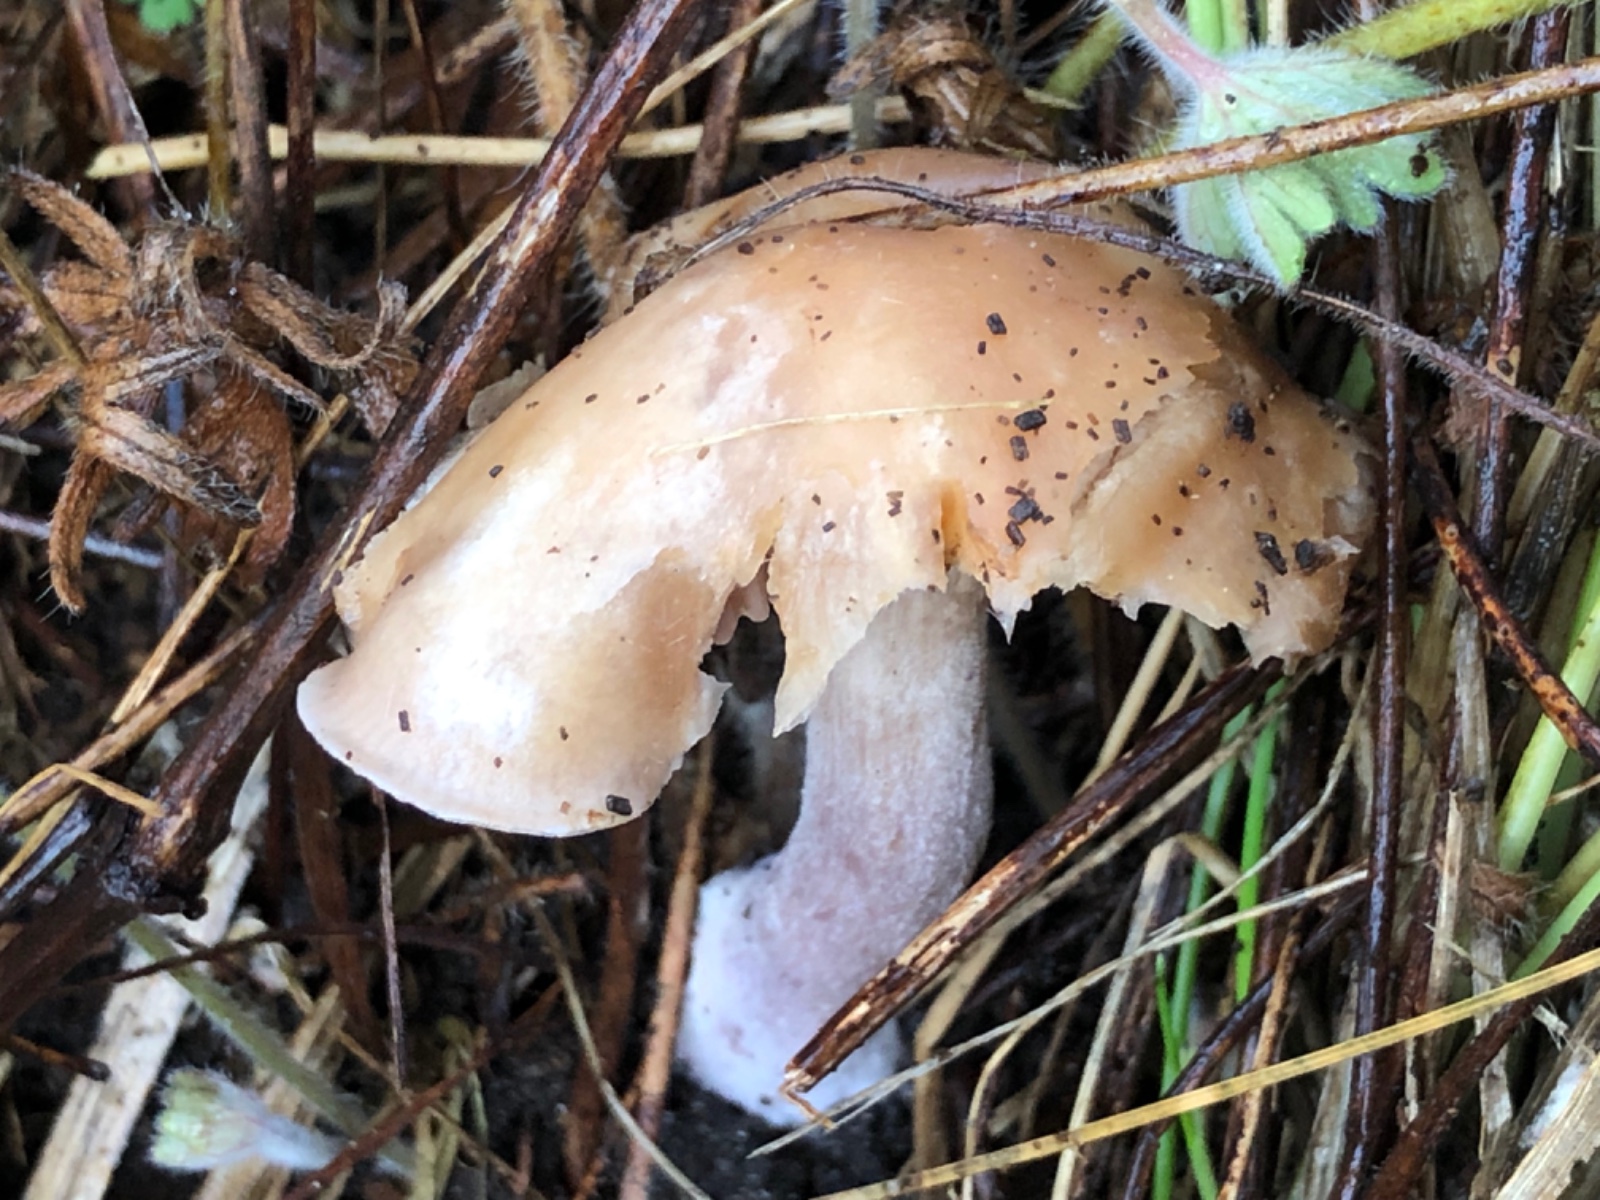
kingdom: Fungi
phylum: Basidiomycota
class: Agaricomycetes
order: Agaricales
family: Tricholomataceae
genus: Lepista
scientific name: Lepista nuda
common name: violet hekseringshat
